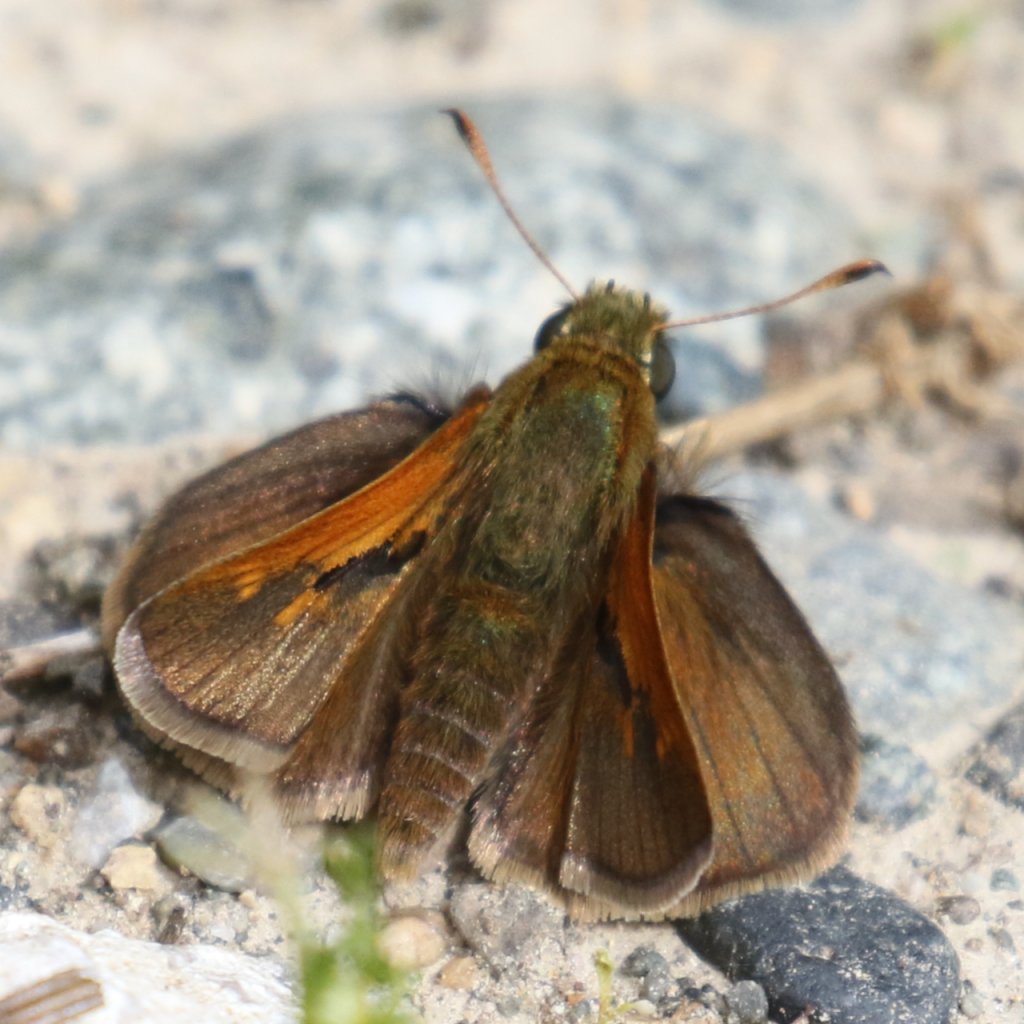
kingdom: Animalia
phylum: Arthropoda
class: Insecta
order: Lepidoptera
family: Hesperiidae
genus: Polites
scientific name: Polites themistocles
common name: Tawny-edged Skipper
